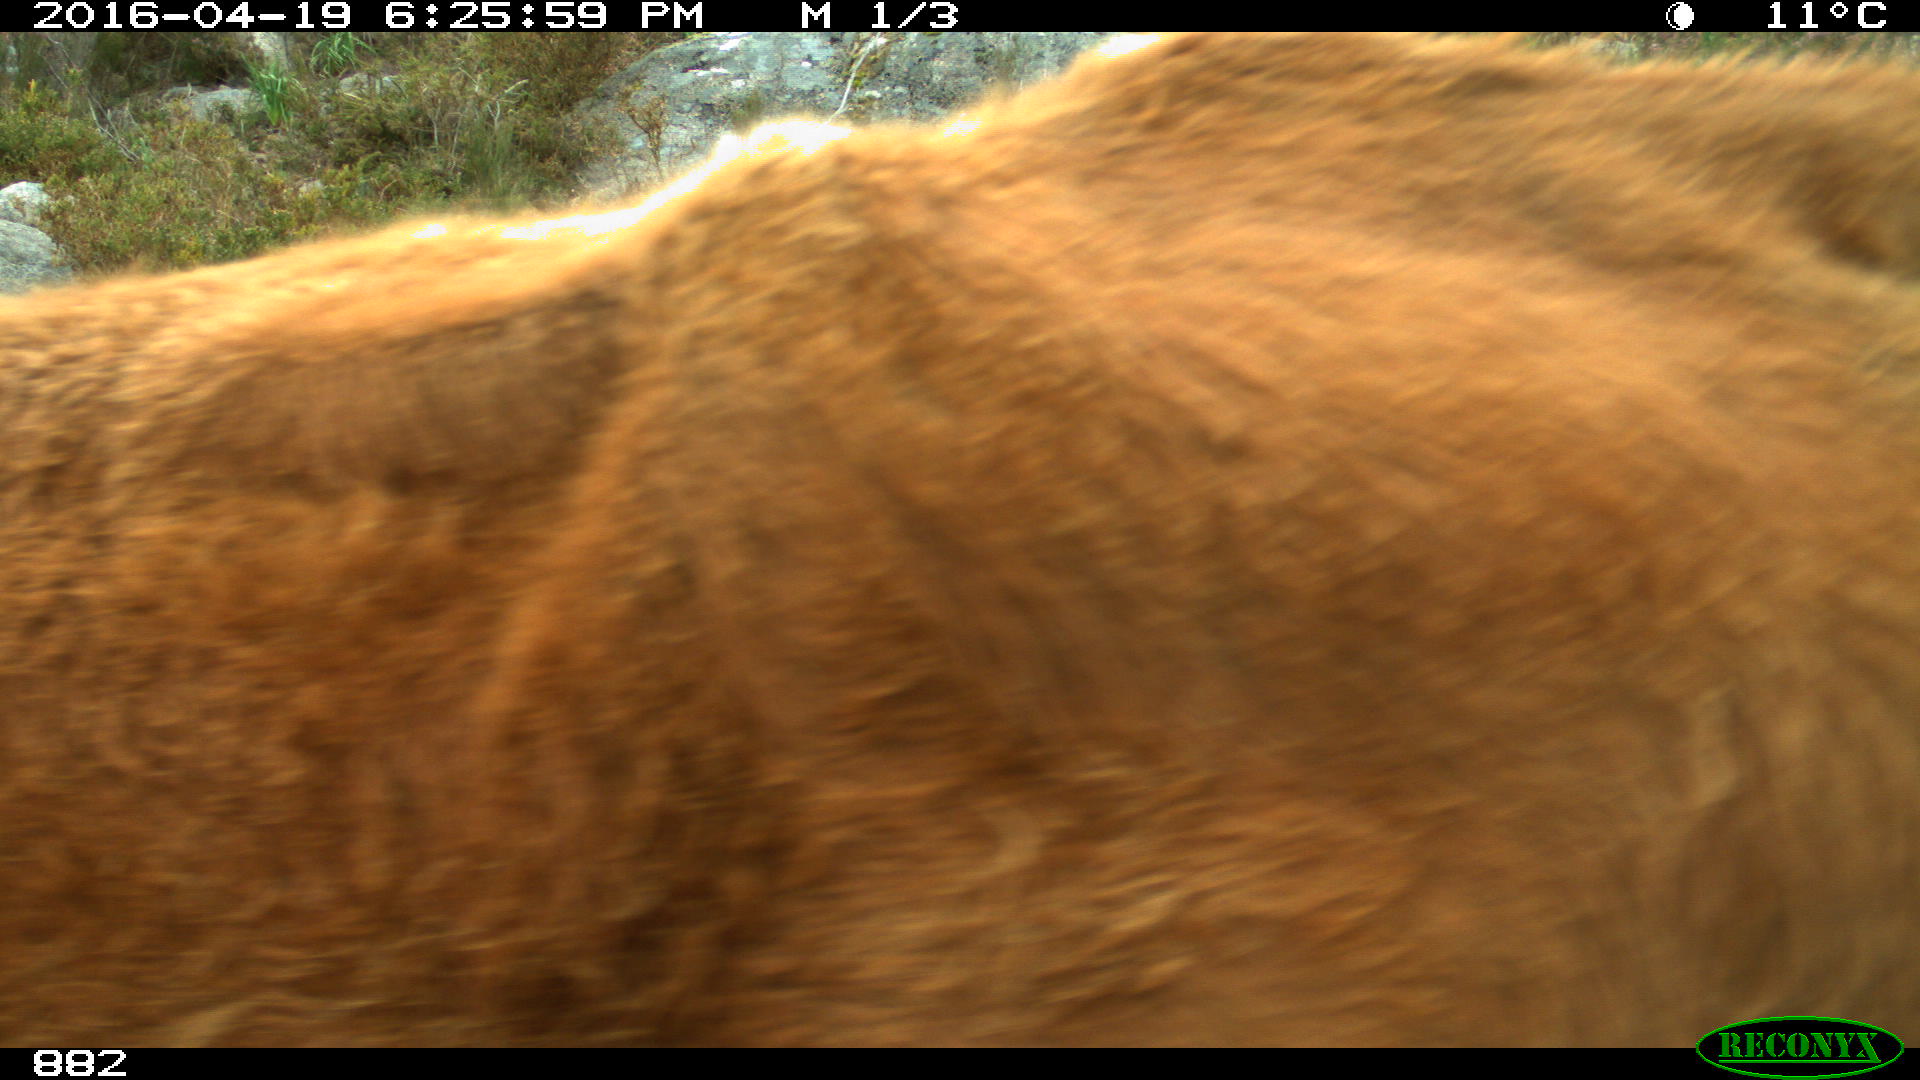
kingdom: Animalia
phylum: Chordata
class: Mammalia
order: Artiodactyla
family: Bovidae
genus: Bos
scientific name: Bos taurus
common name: Domesticated cattle
